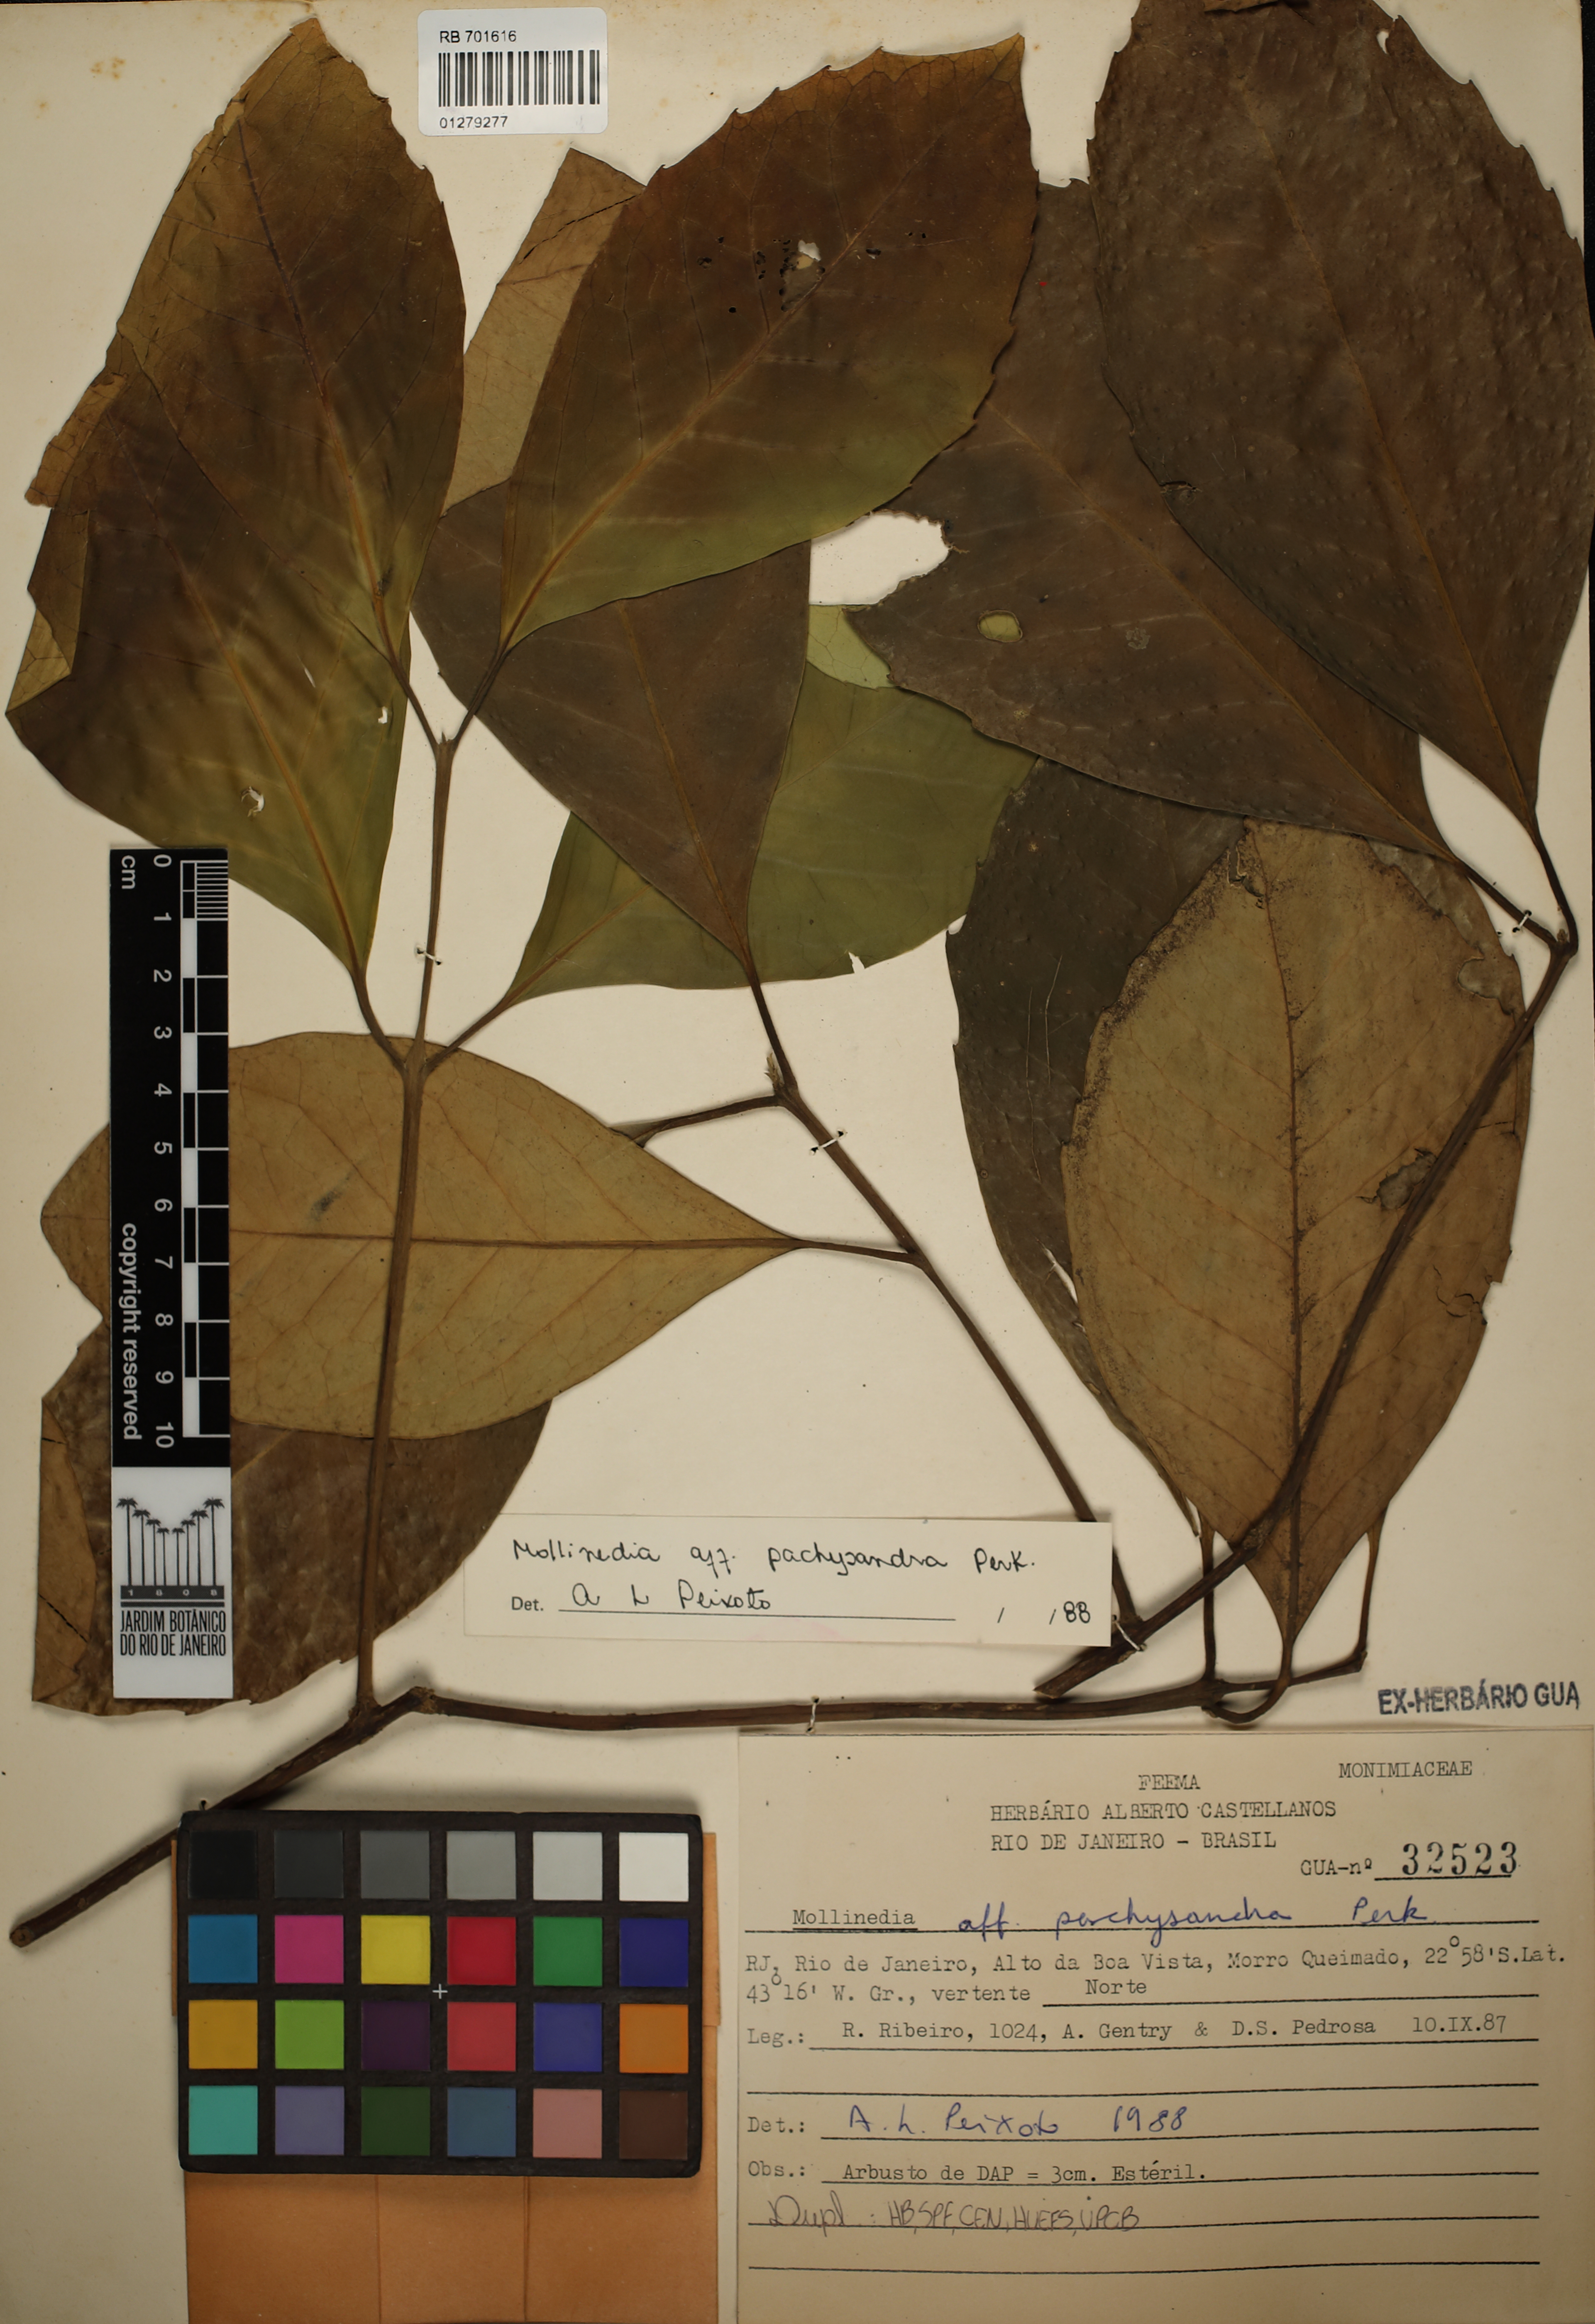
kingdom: Plantae
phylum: Tracheophyta
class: Magnoliopsida
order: Laurales
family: Monimiaceae
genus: Mollinedia
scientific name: Mollinedia pachysandra
